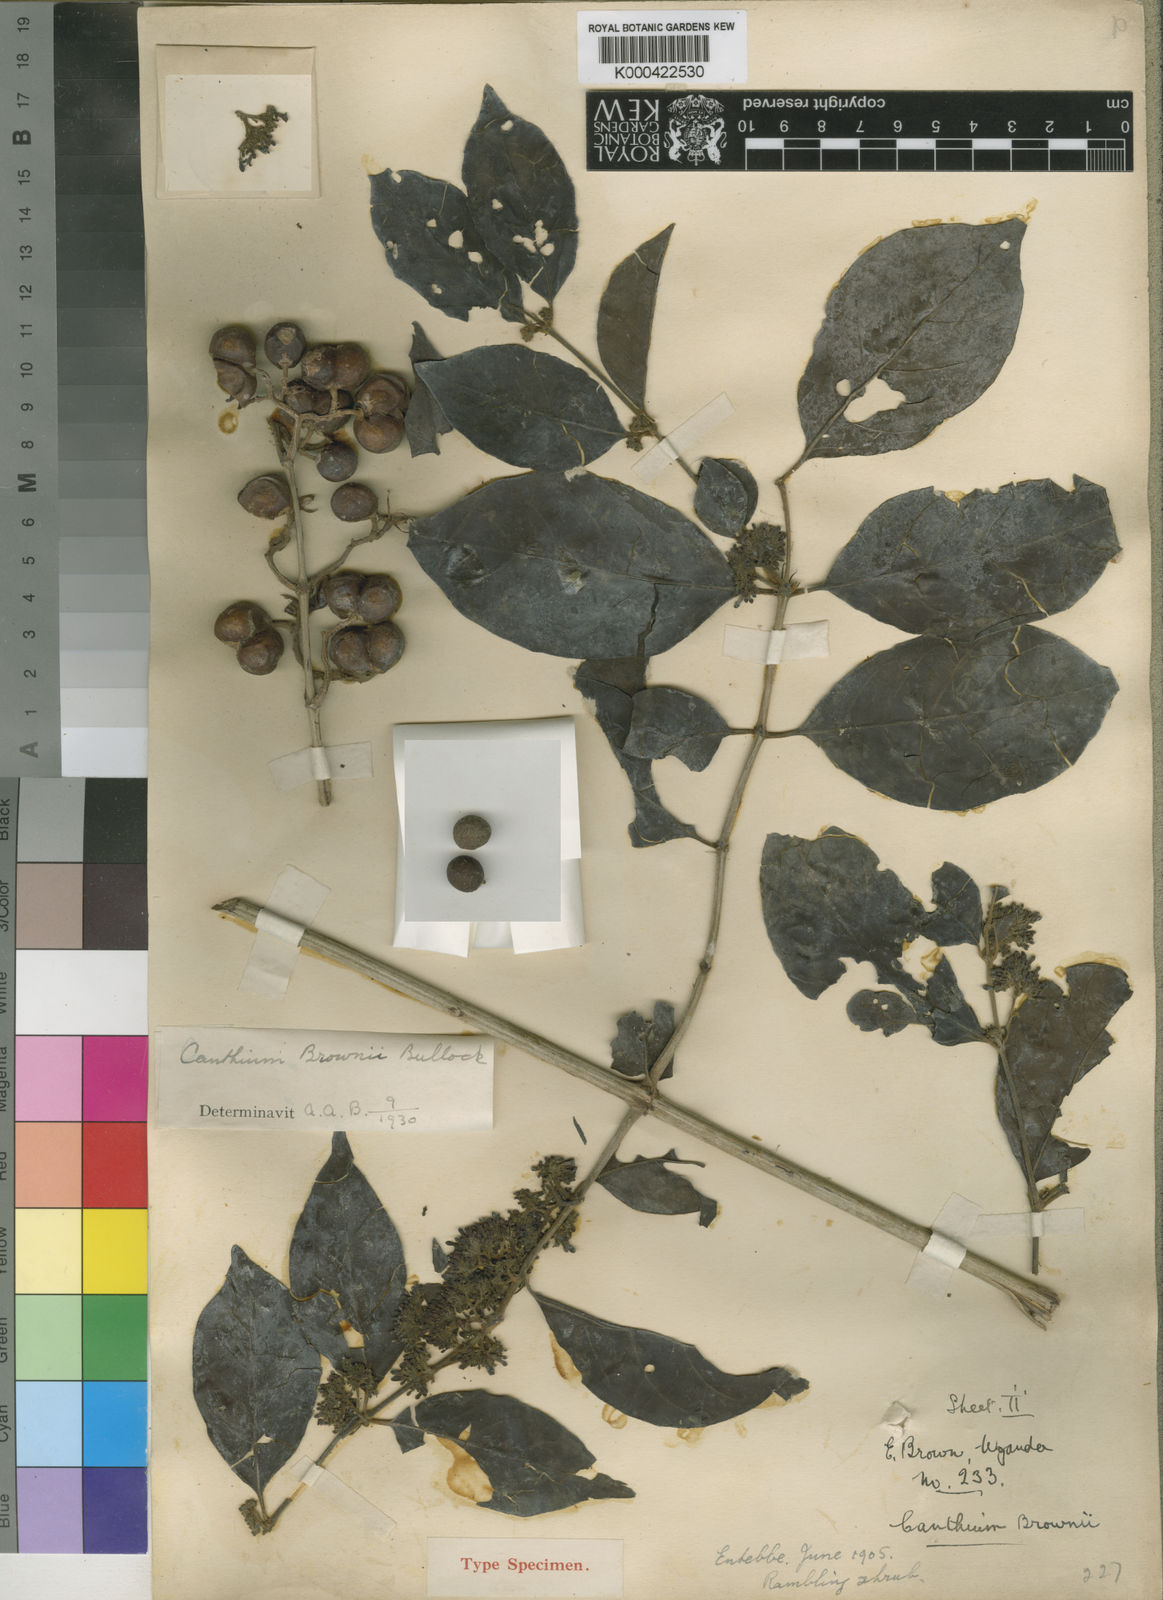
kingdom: Plantae
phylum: Tracheophyta
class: Magnoliopsida
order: Gentianales
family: Rubiaceae
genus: Keetia
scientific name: Keetia tenuiflora
